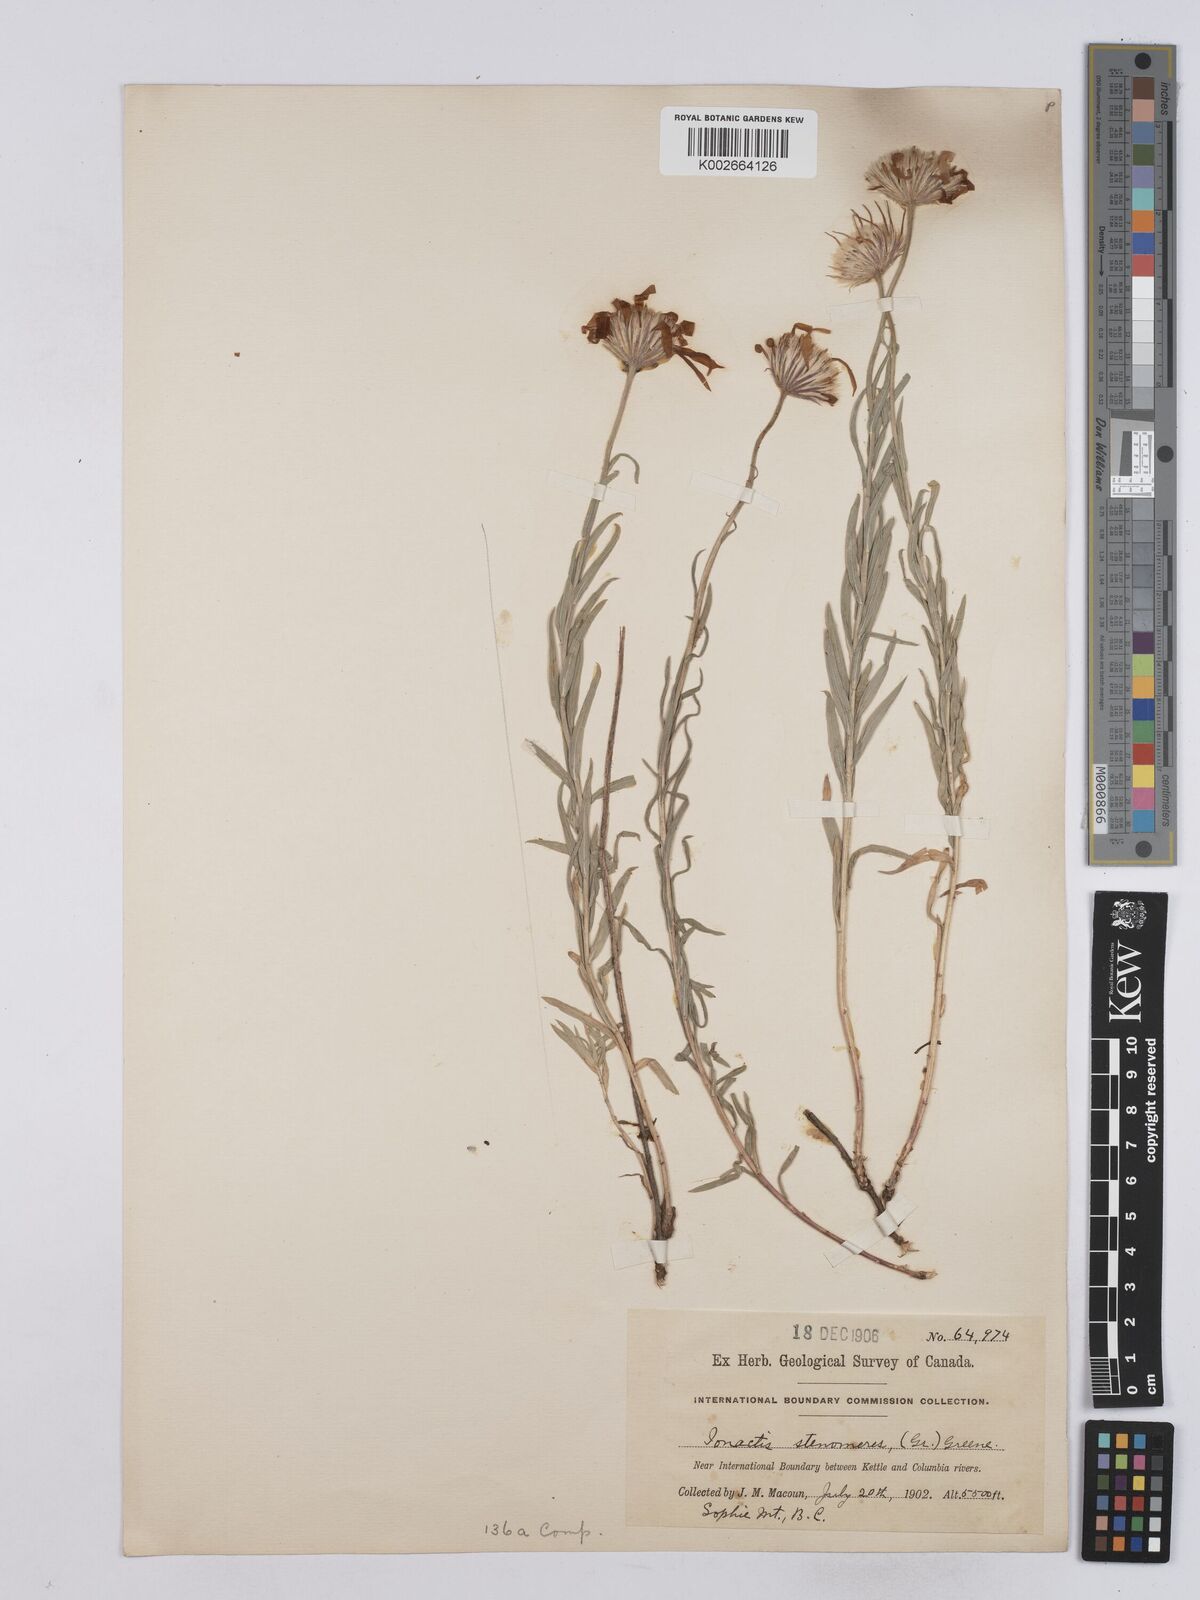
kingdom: Plantae
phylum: Tracheophyta
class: Magnoliopsida
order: Asterales
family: Asteraceae
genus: Ionactis
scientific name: Ionactis stenomeres
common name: Rocky mountain ankle-aster
